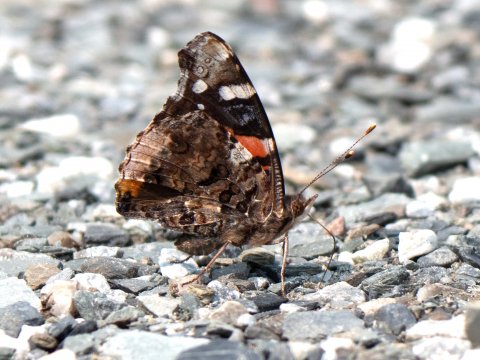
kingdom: Animalia
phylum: Arthropoda
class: Insecta
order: Lepidoptera
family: Nymphalidae
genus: Vanessa
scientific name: Vanessa atalanta
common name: Red Admiral
